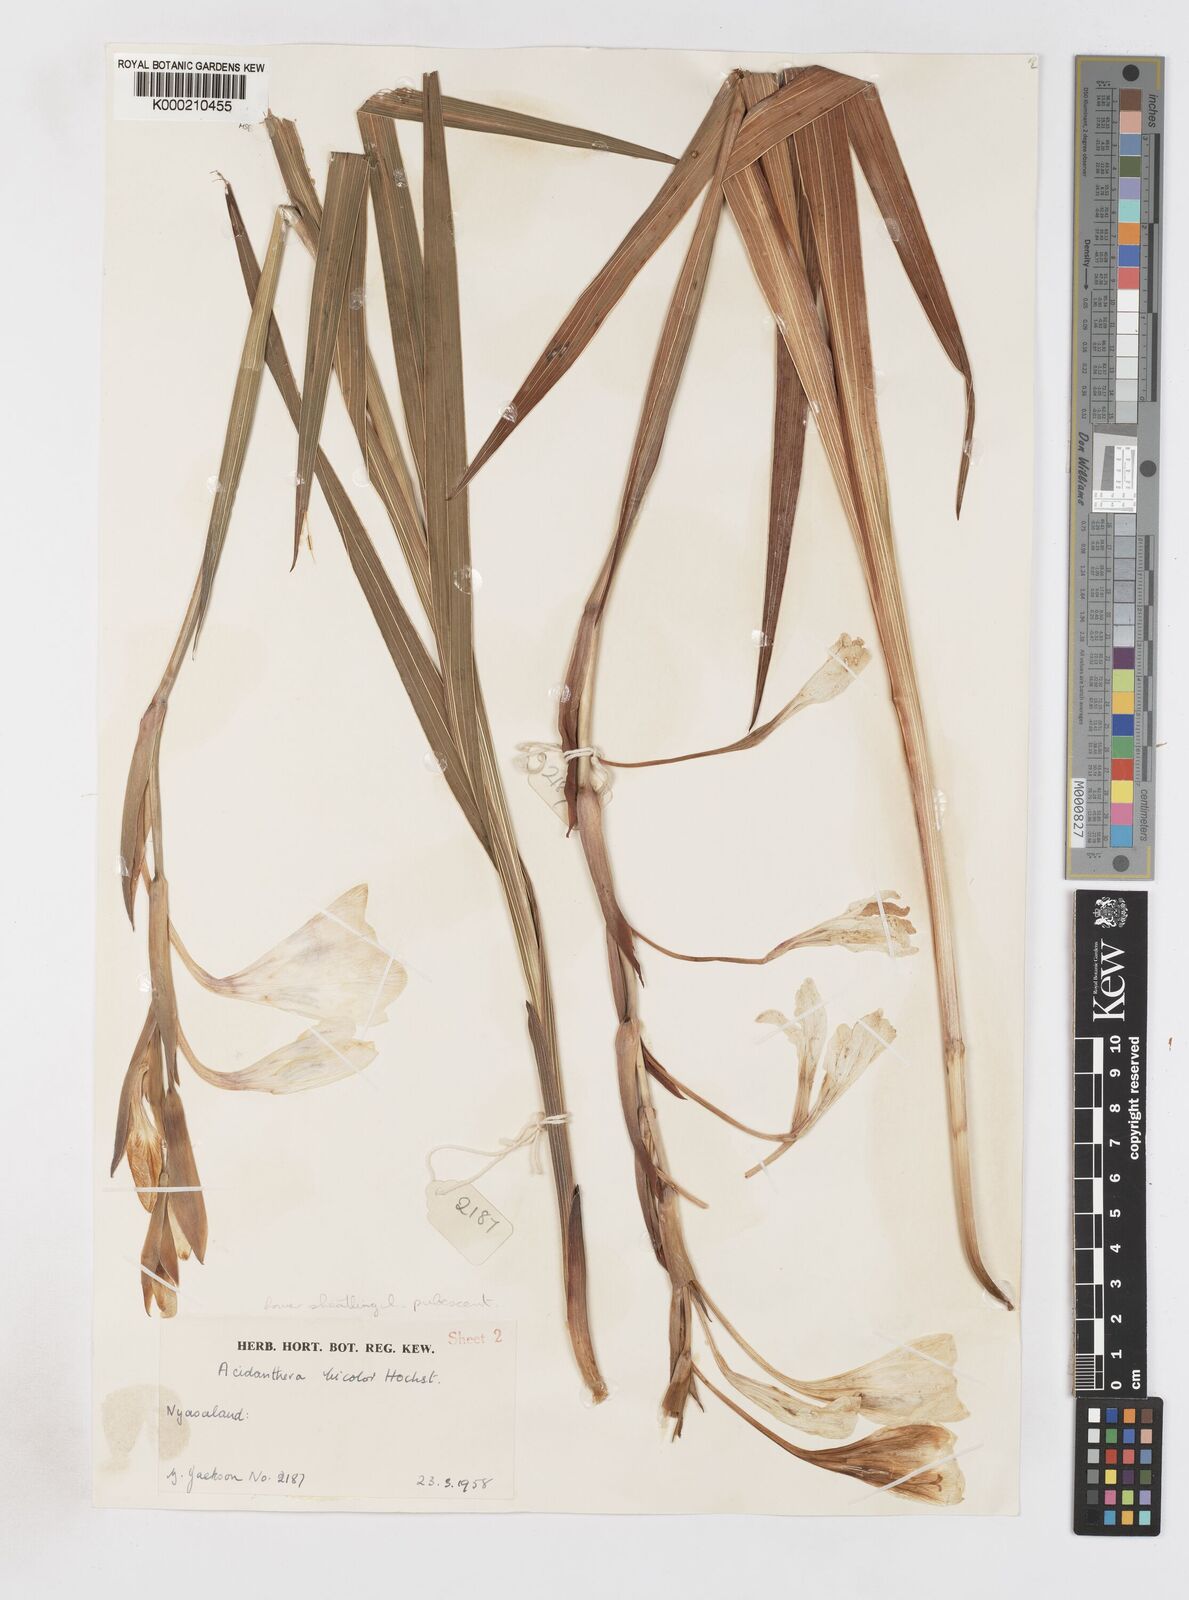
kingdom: Plantae
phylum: Tracheophyta
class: Liliopsida
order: Asparagales
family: Iridaceae
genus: Gladiolus
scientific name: Gladiolus bellus
